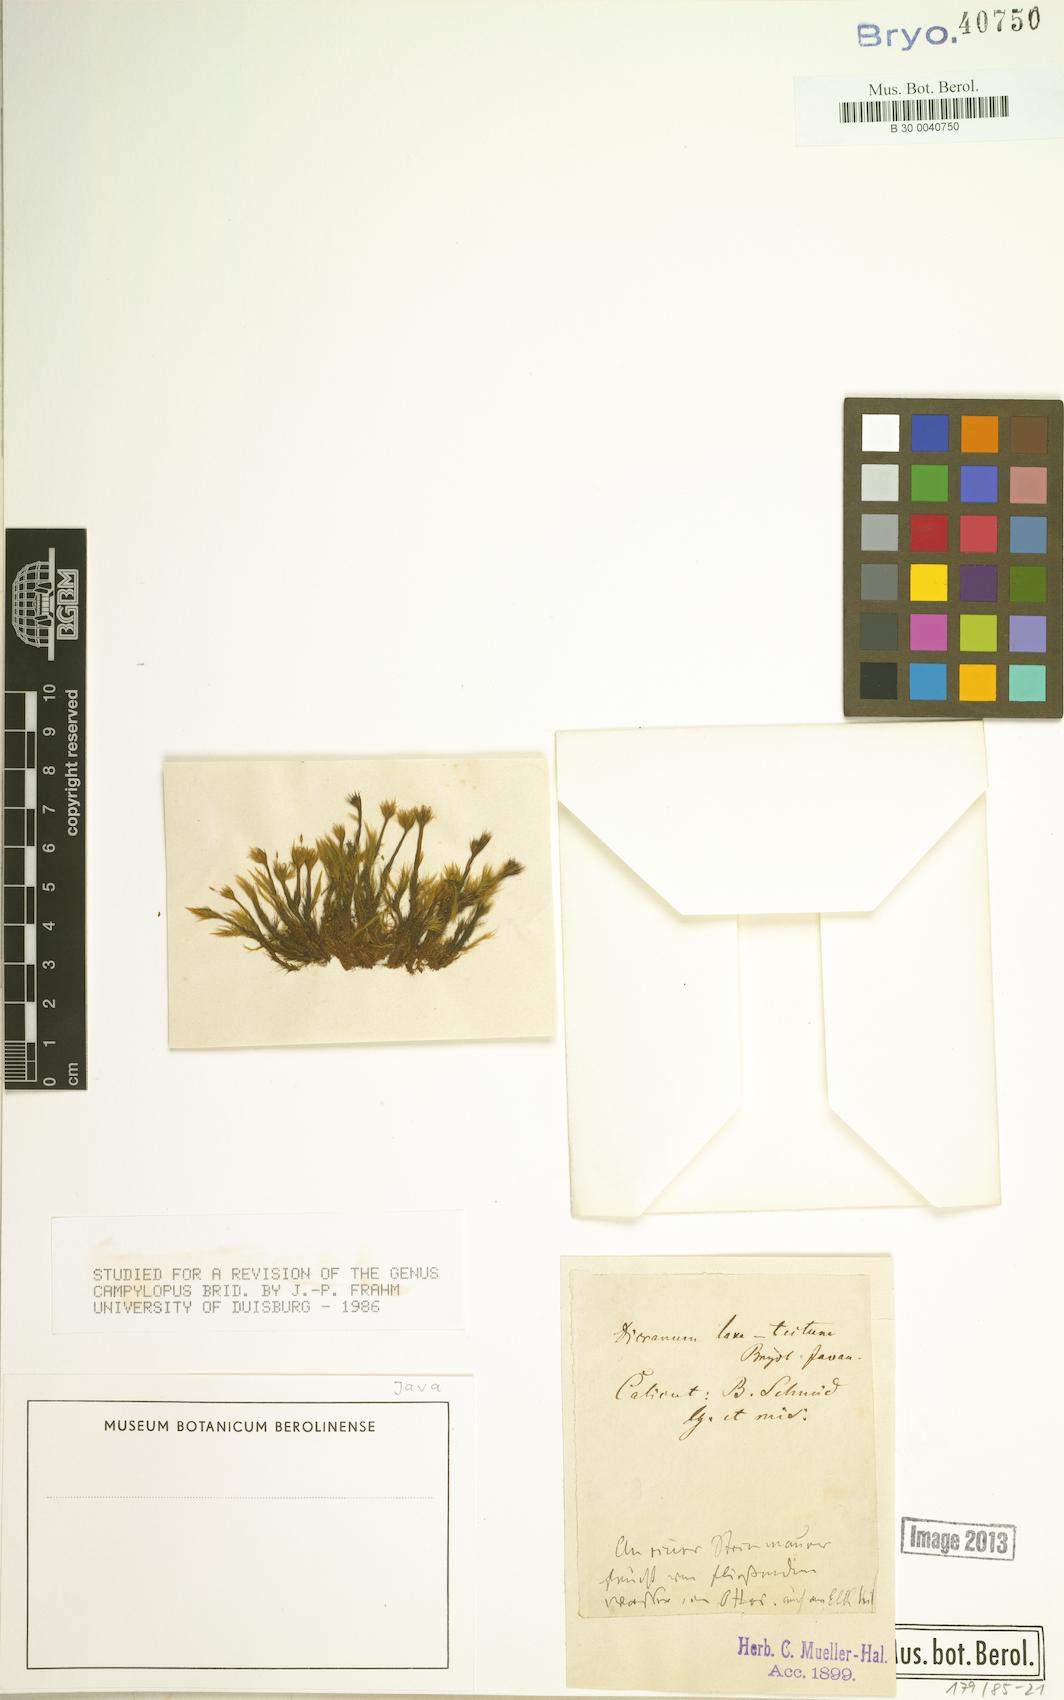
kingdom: Plantae
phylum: Bryophyta
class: Bryopsida
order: Dicranales
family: Leucobryaceae
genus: Campylopus
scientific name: Campylopus laxitextus
